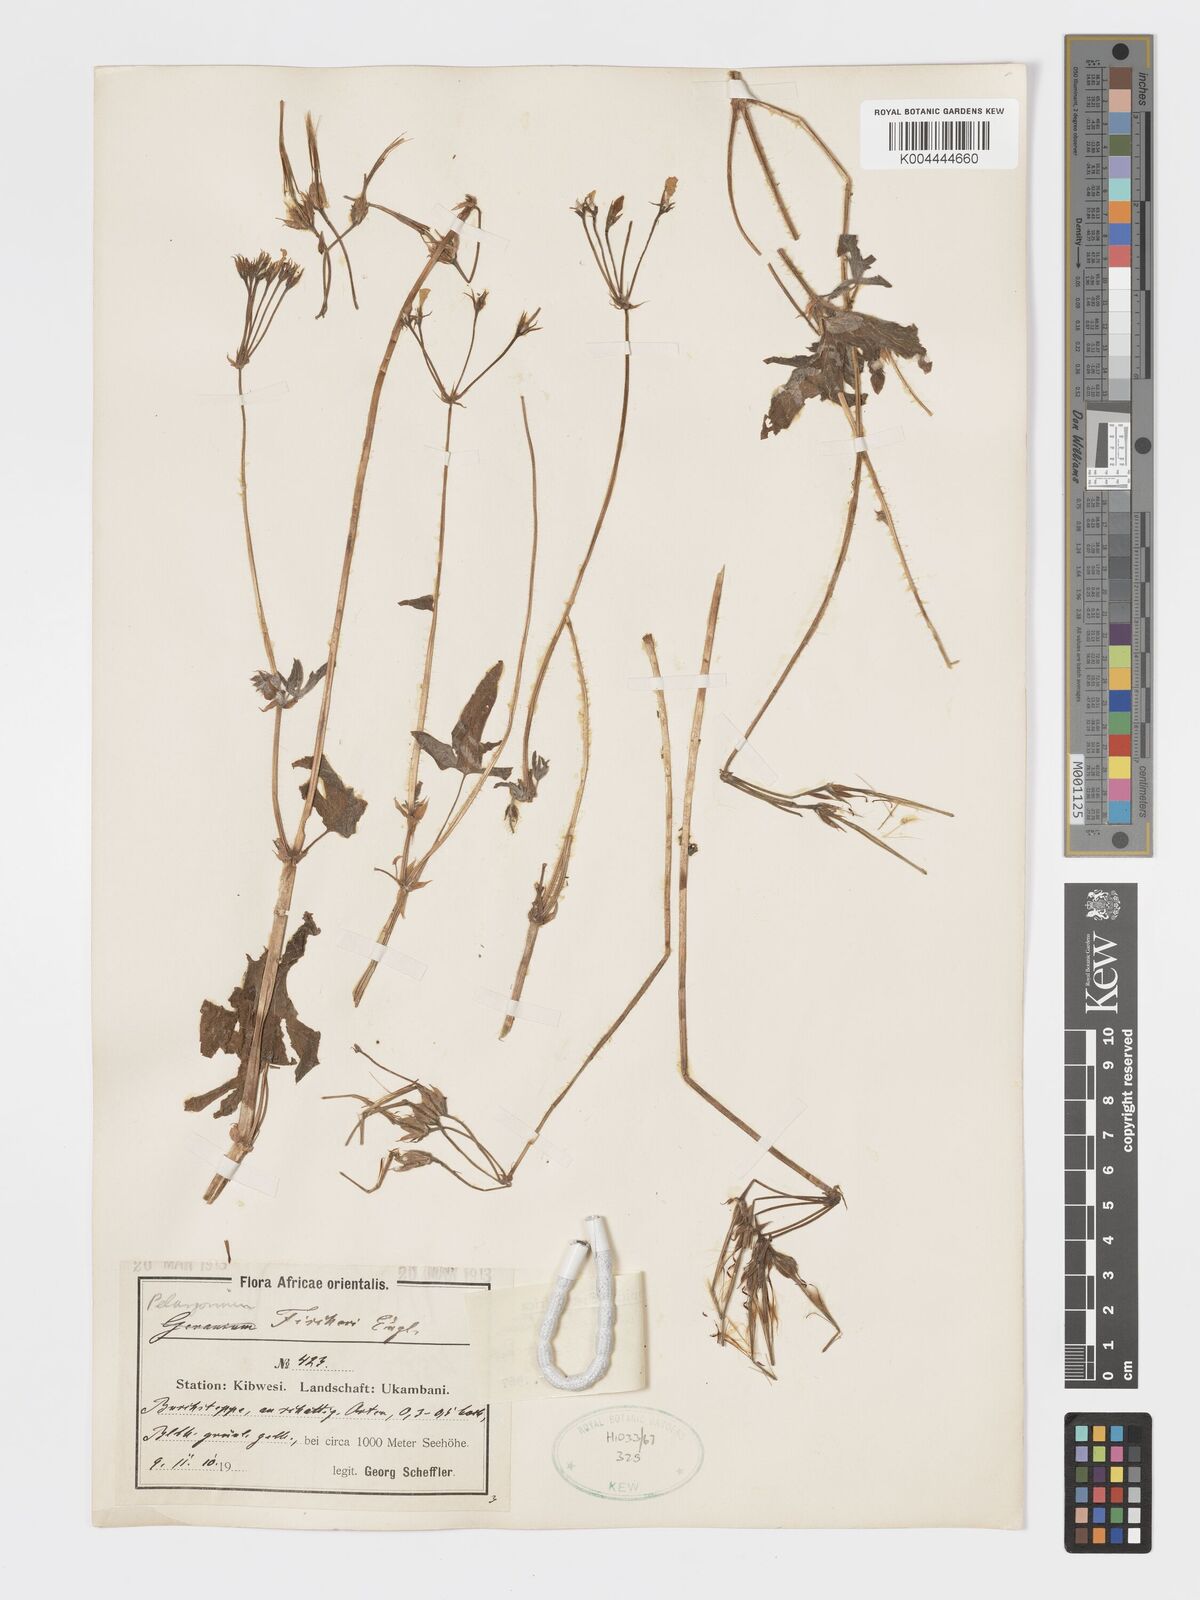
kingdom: Plantae
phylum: Tracheophyta
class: Magnoliopsida
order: Geraniales
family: Geraniaceae
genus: Pelargonium
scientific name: Pelargonium quinquelobatum
